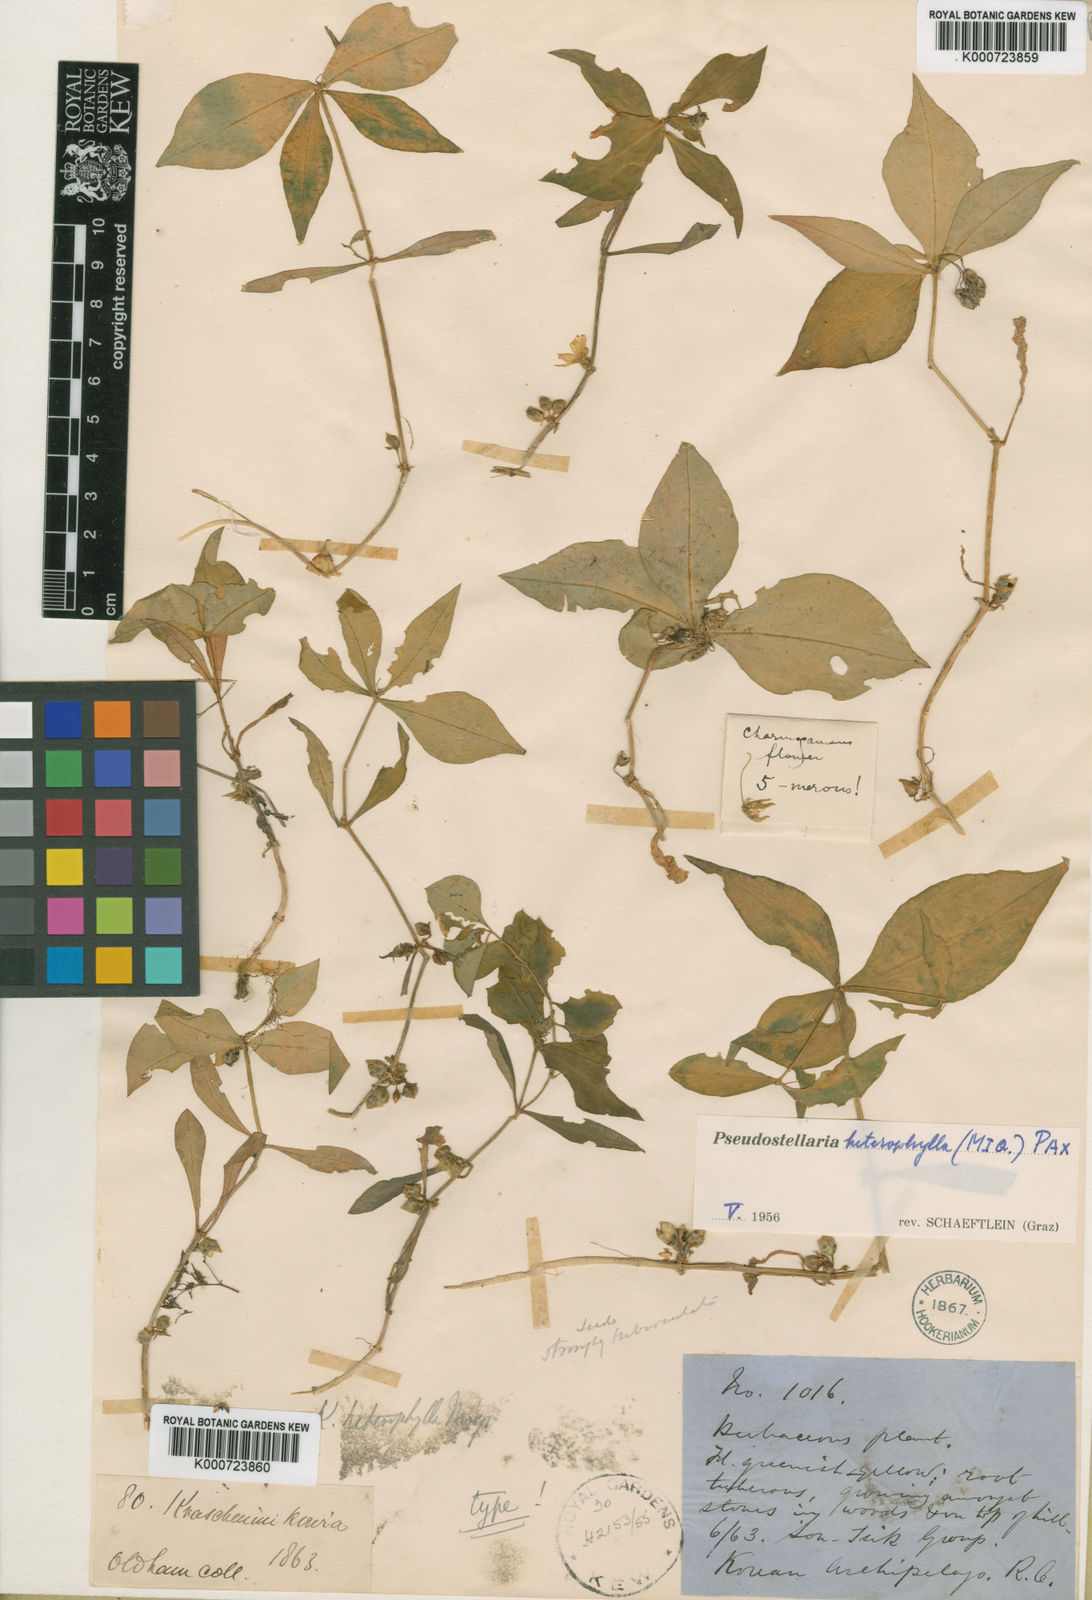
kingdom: Plantae
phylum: Tracheophyta
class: Magnoliopsida
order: Caryophyllales
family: Caryophyllaceae
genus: Pseudostellaria
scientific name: Pseudostellaria heterophylla
